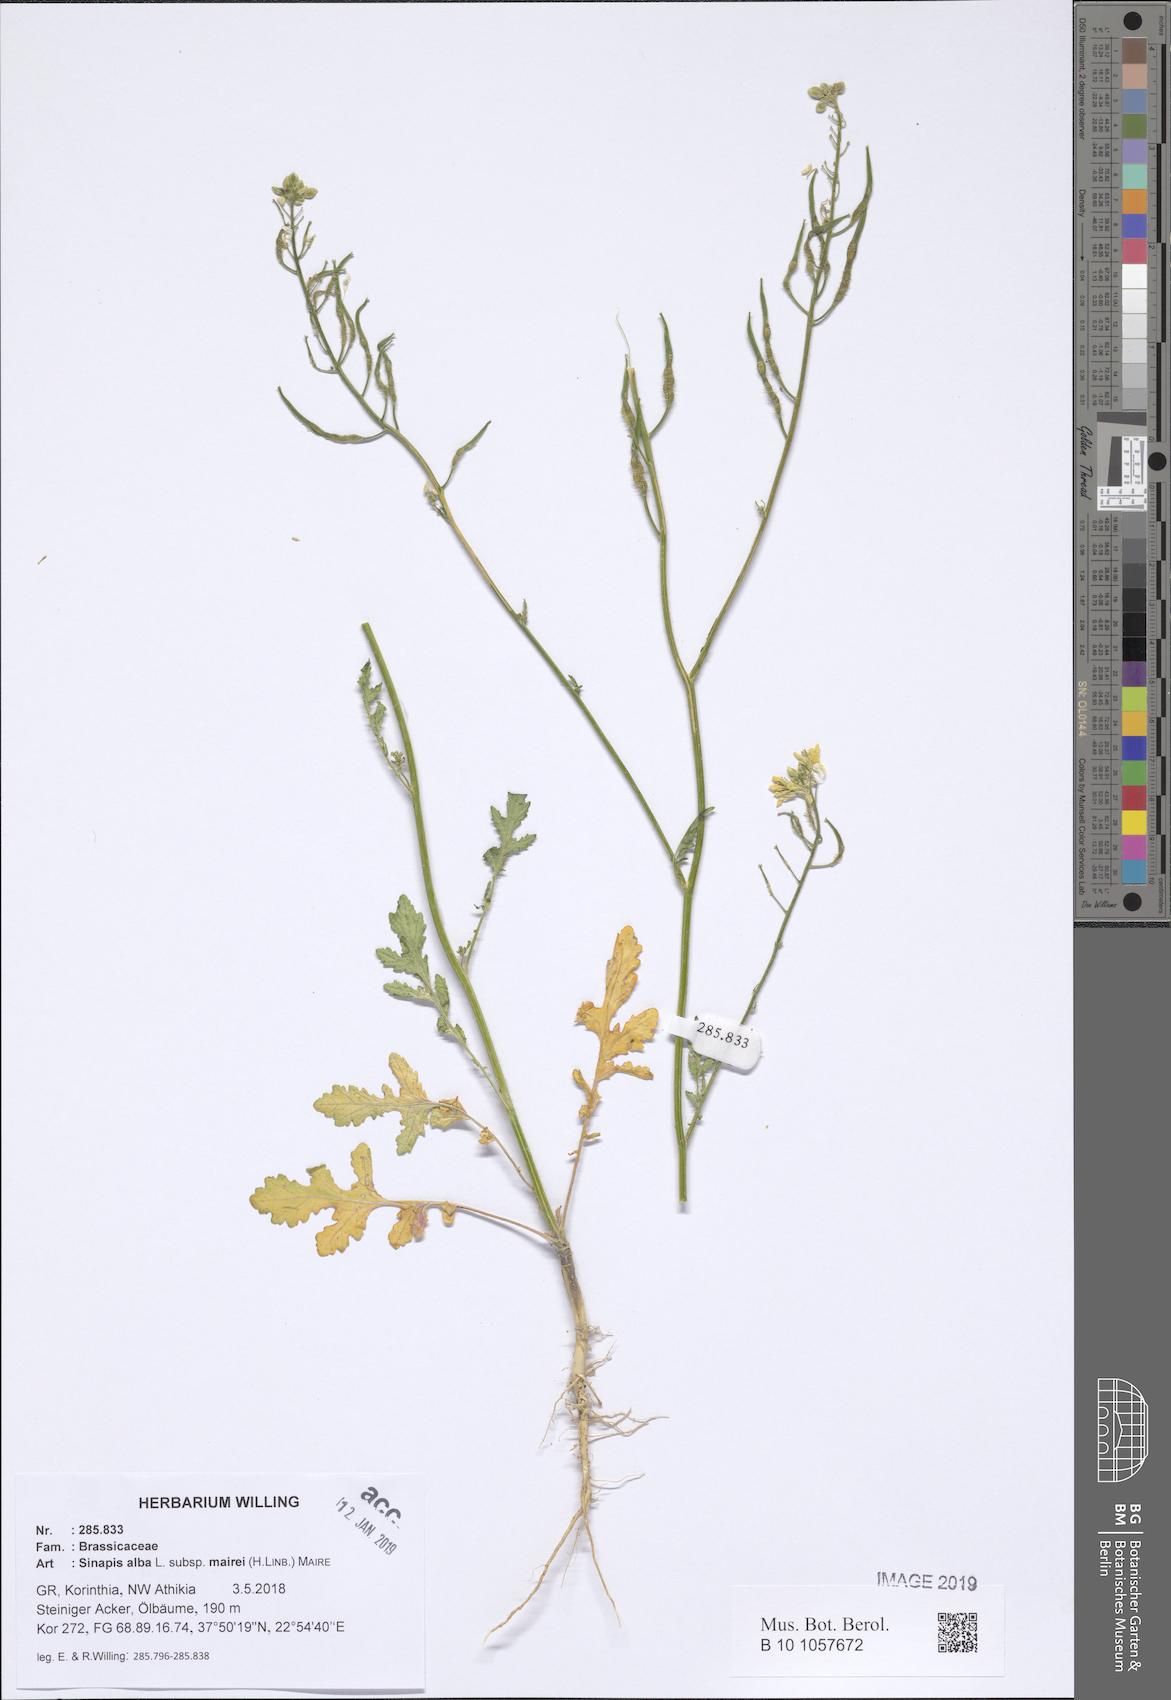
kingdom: Plantae
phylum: Tracheophyta
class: Magnoliopsida
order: Brassicales
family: Brassicaceae
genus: Sinapis
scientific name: Sinapis alba
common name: White mustard
